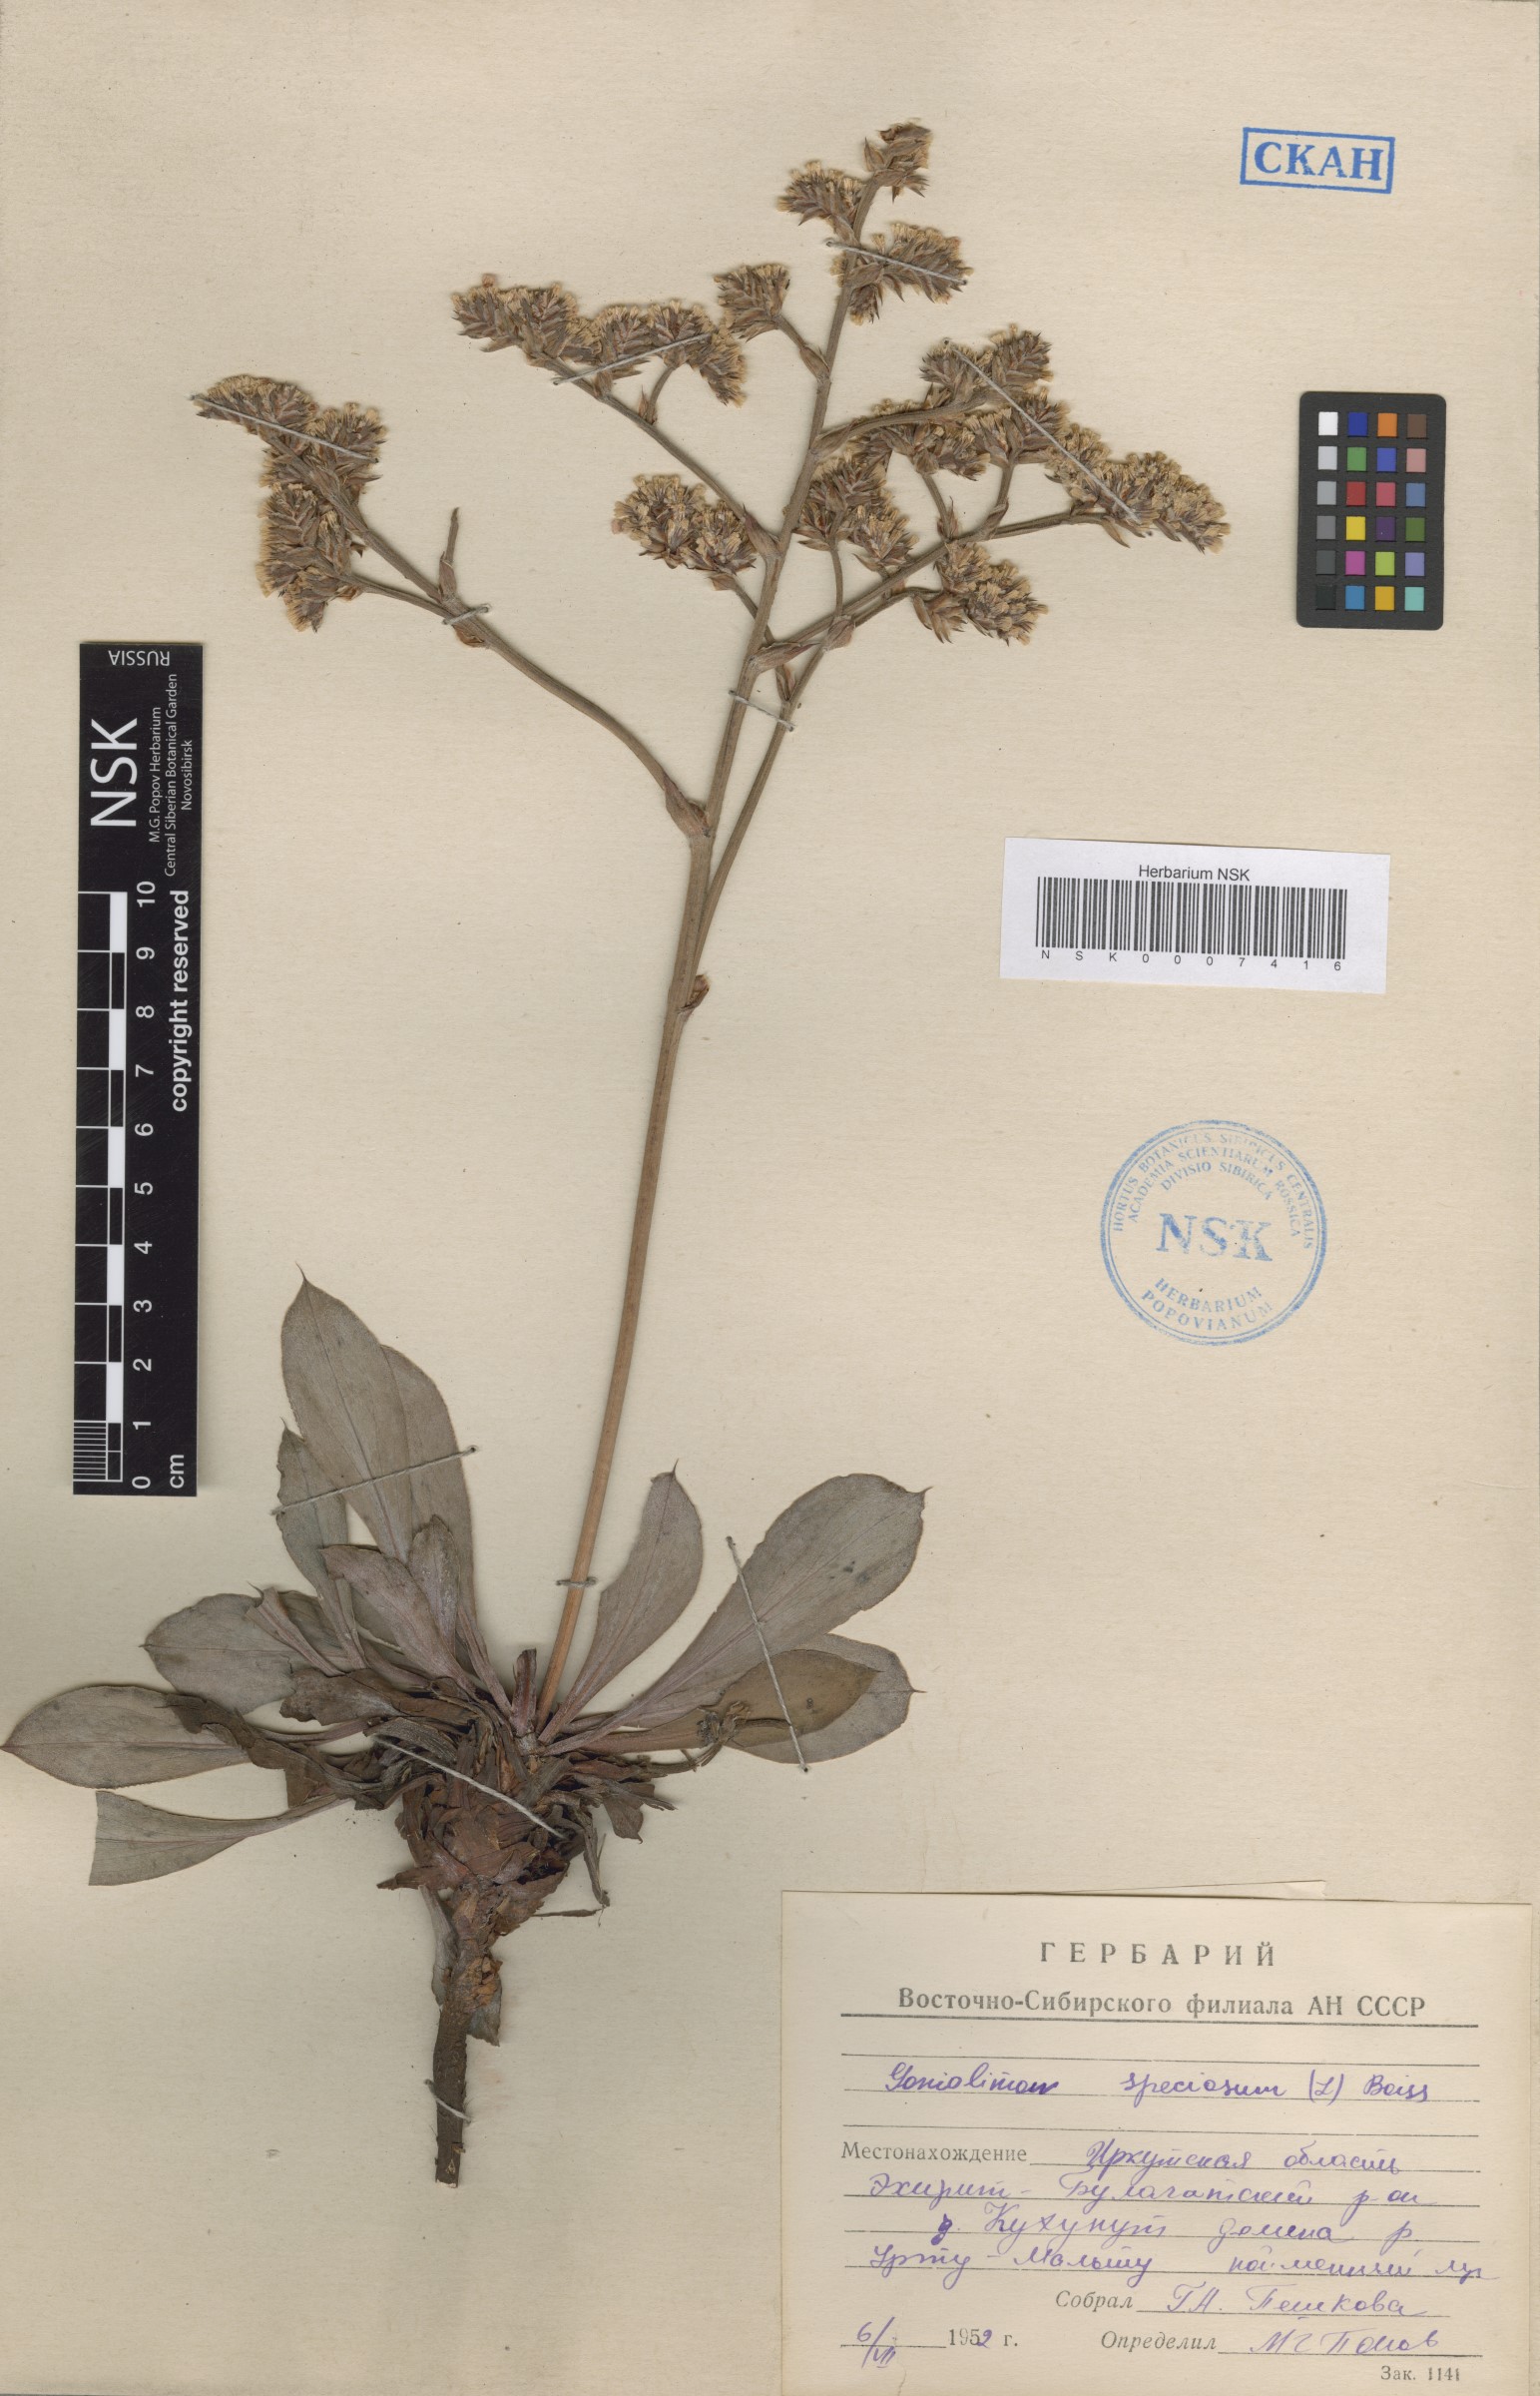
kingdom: Plantae
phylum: Tracheophyta
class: Magnoliopsida
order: Caryophyllales
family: Plumbaginaceae
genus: Goniolimon
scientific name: Goniolimon speciosum
